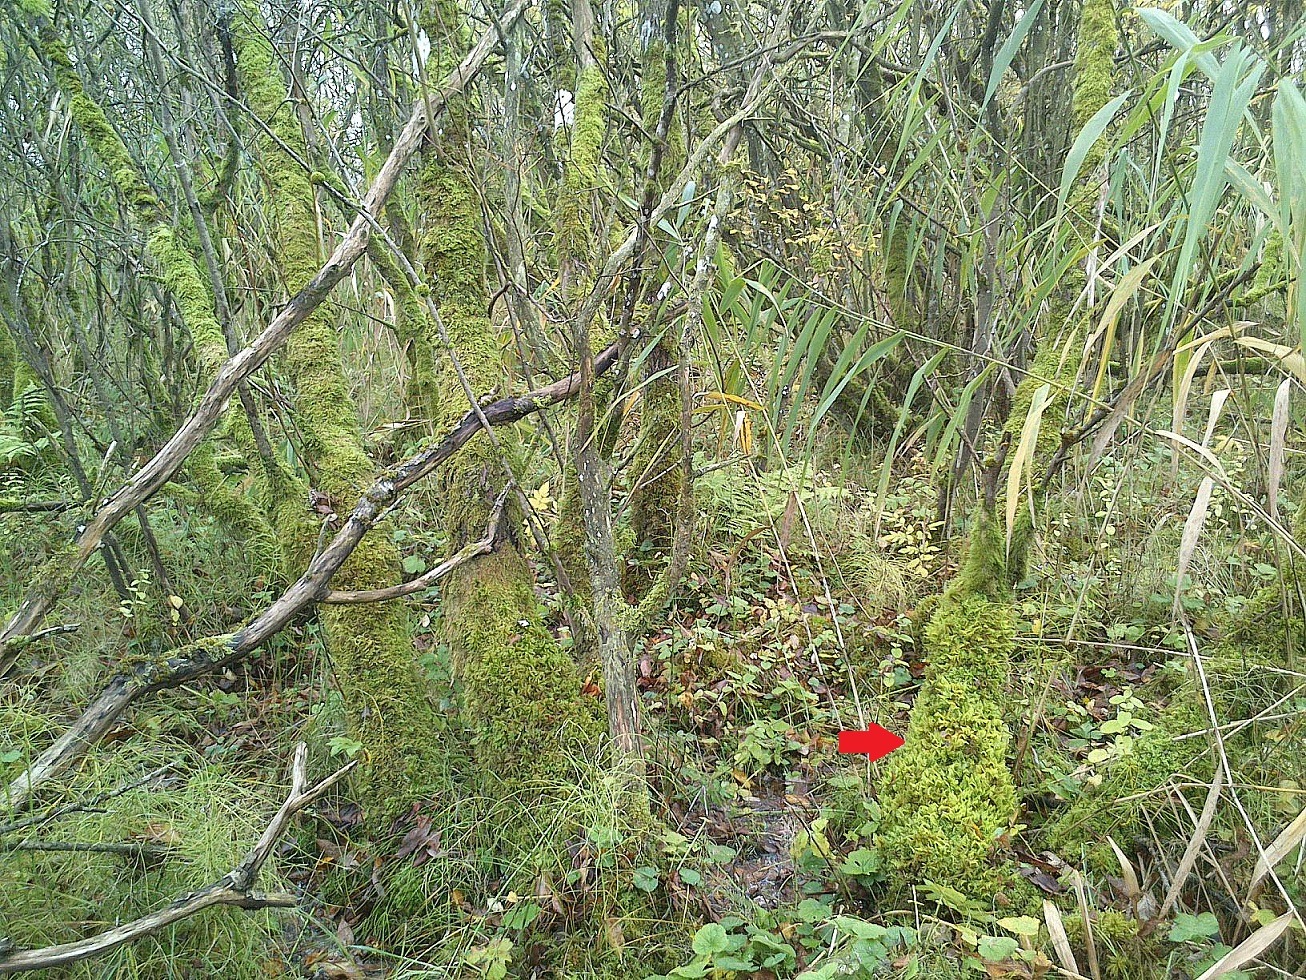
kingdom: Plantae
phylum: Bryophyta
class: Bryopsida
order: Hypnales
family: Pylaisiaceae
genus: Ptilium
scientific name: Ptilium crista-castrensis
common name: Fjer-kammos
